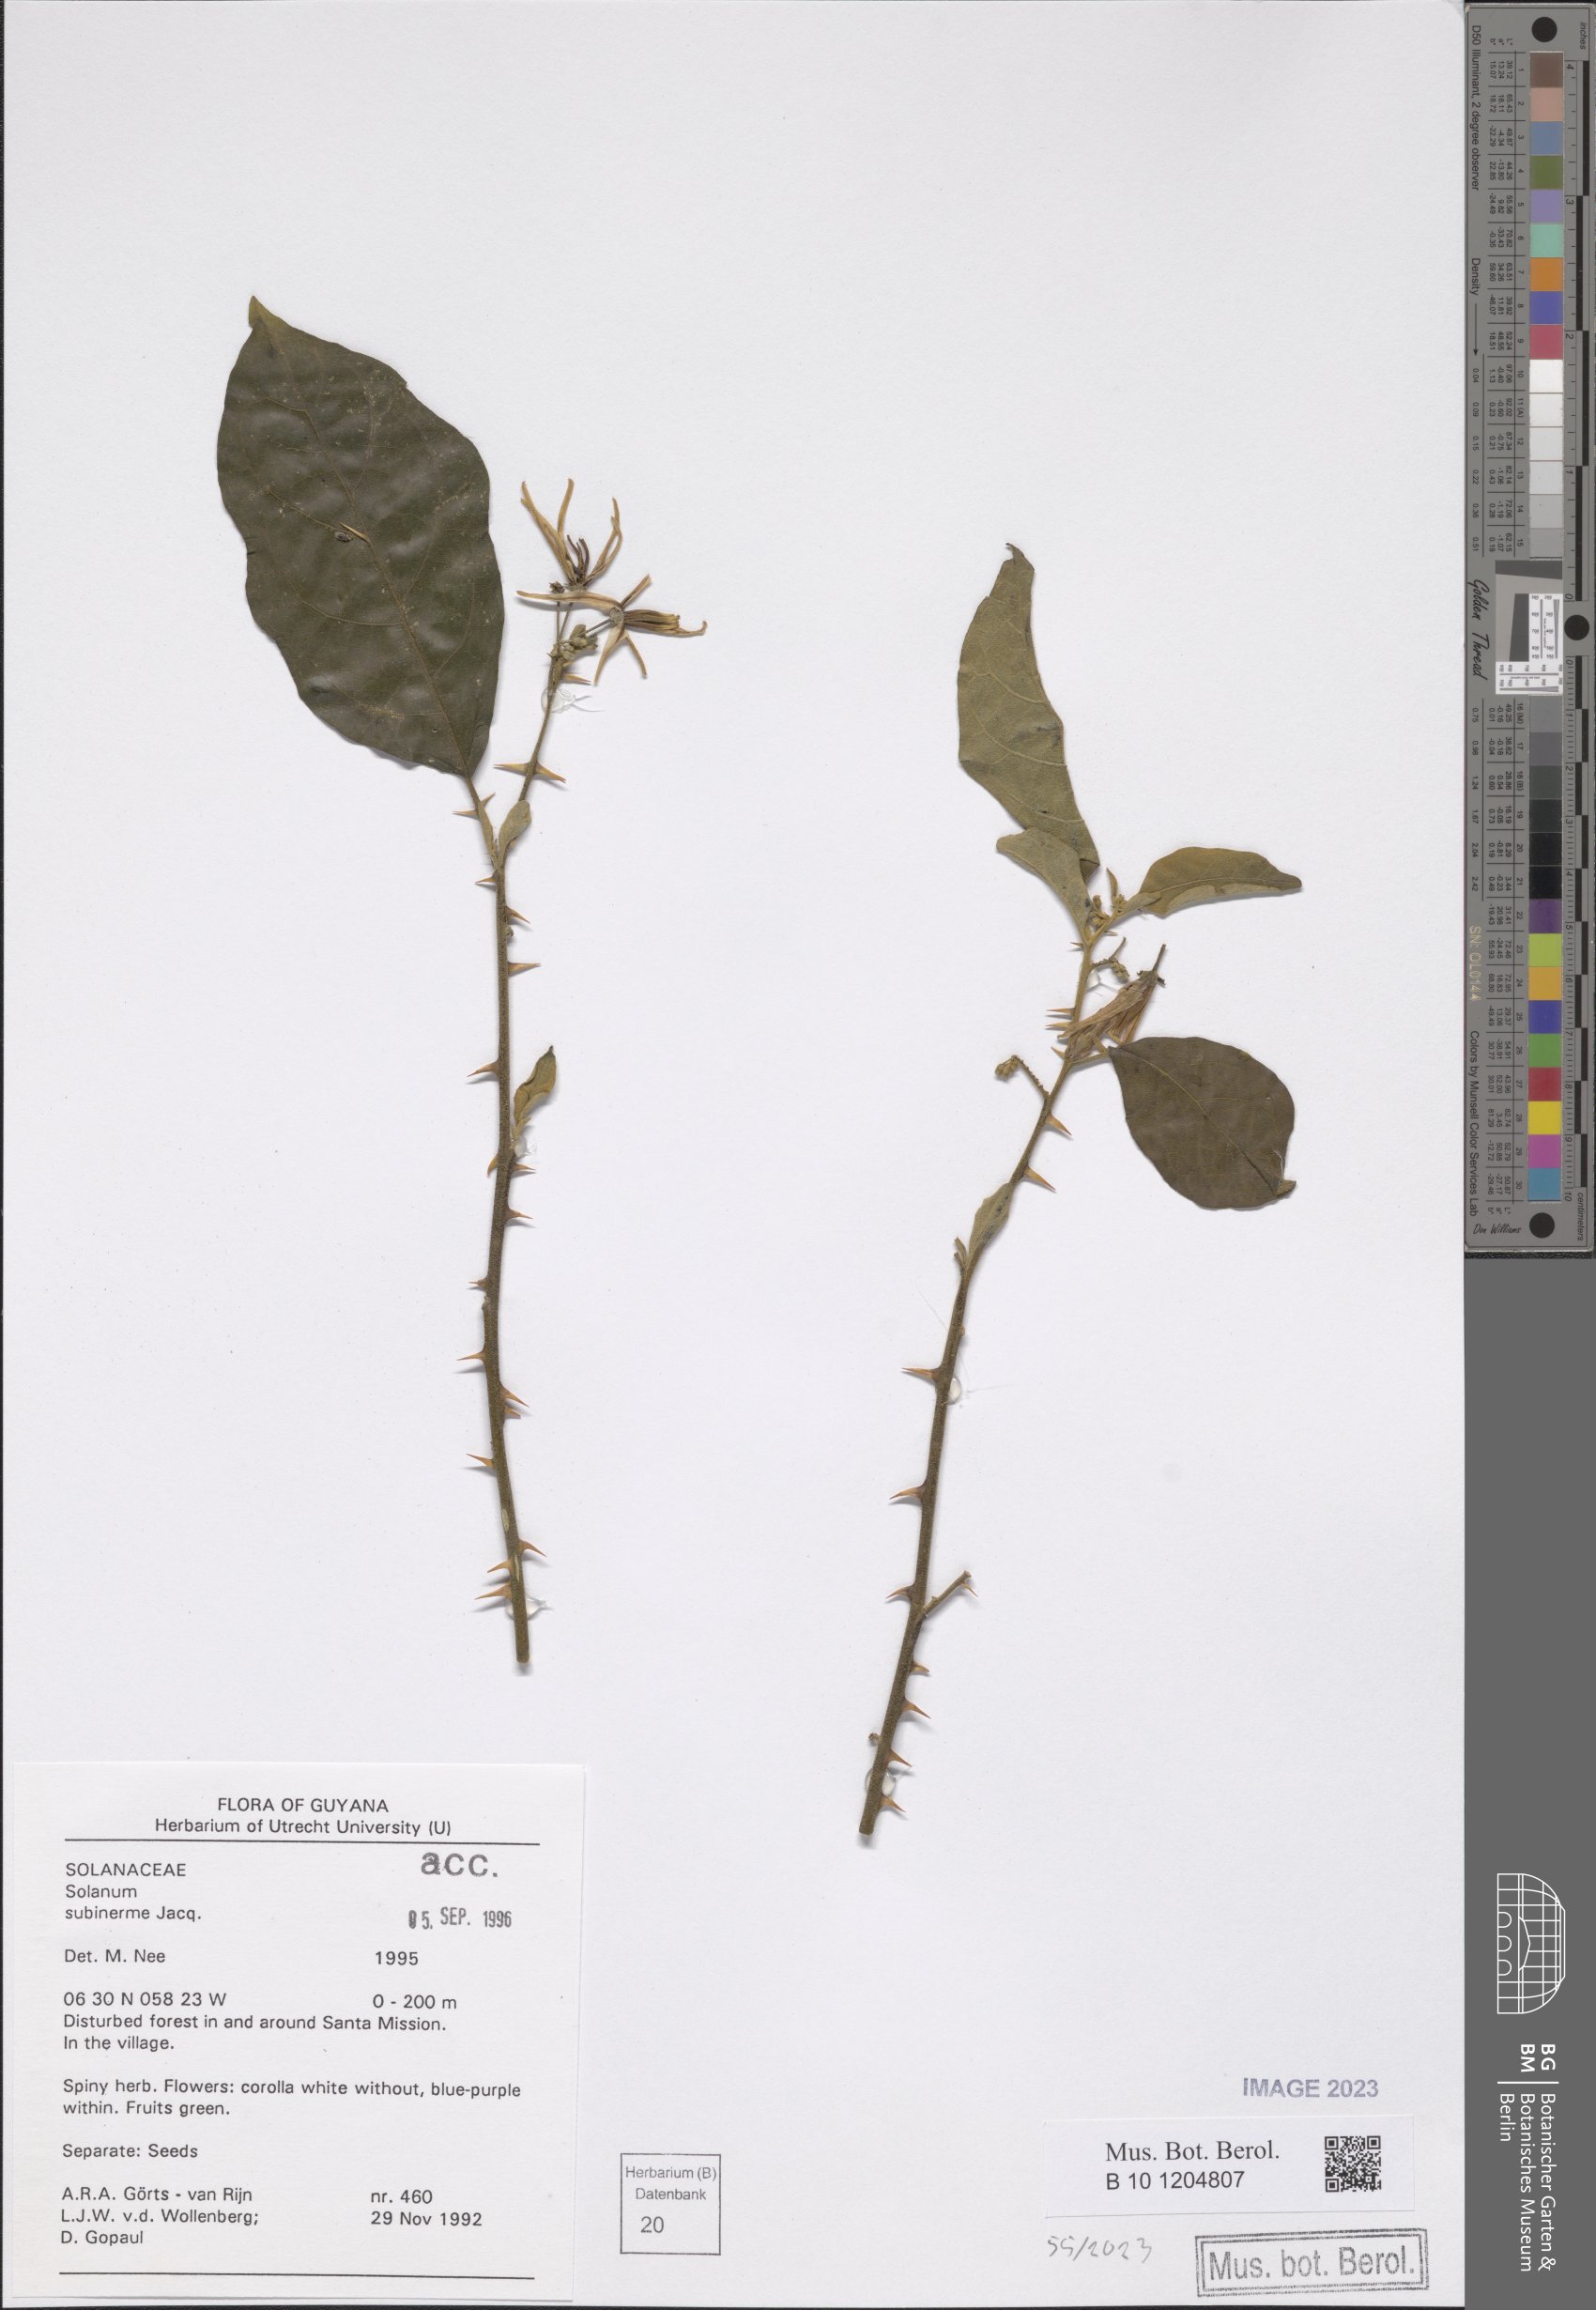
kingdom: Plantae
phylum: Tracheophyta
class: Magnoliopsida
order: Solanales
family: Solanaceae
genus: Solanum
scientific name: Solanum subinerme
